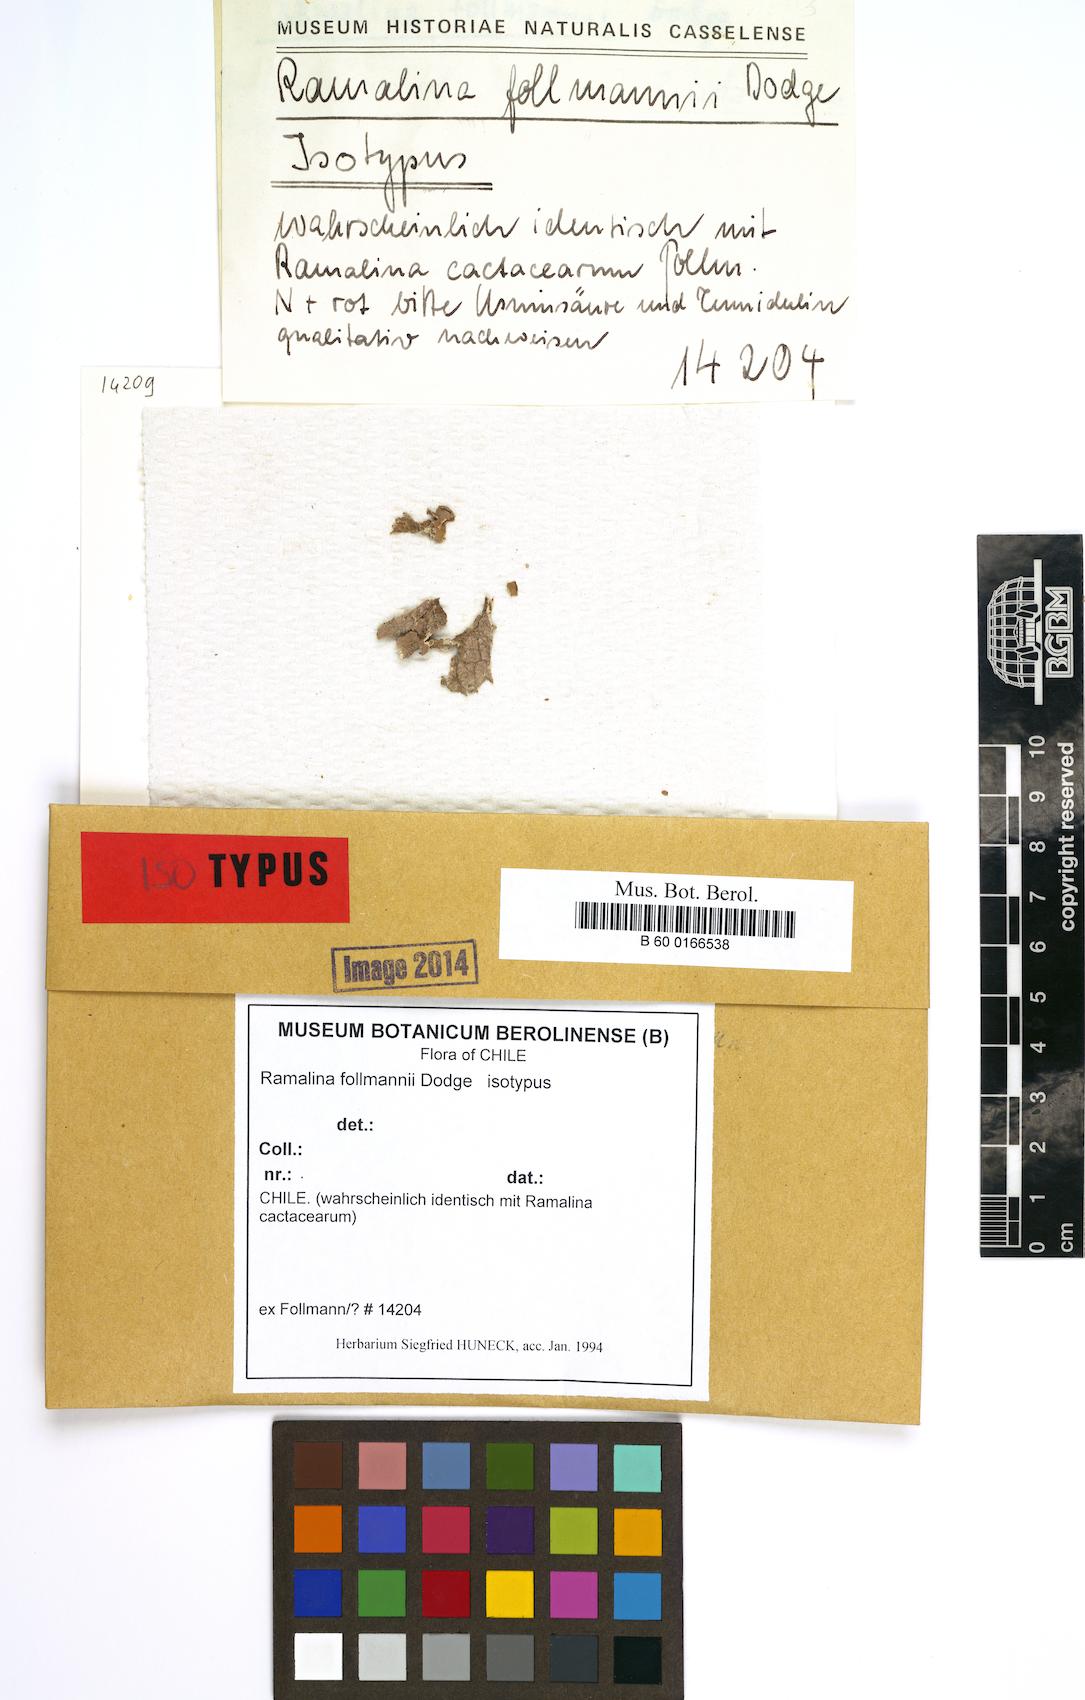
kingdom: Fungi
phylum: Ascomycota
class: Lecanoromycetes
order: Lecanorales
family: Ramalinaceae
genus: Ramalina
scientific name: Ramalina
